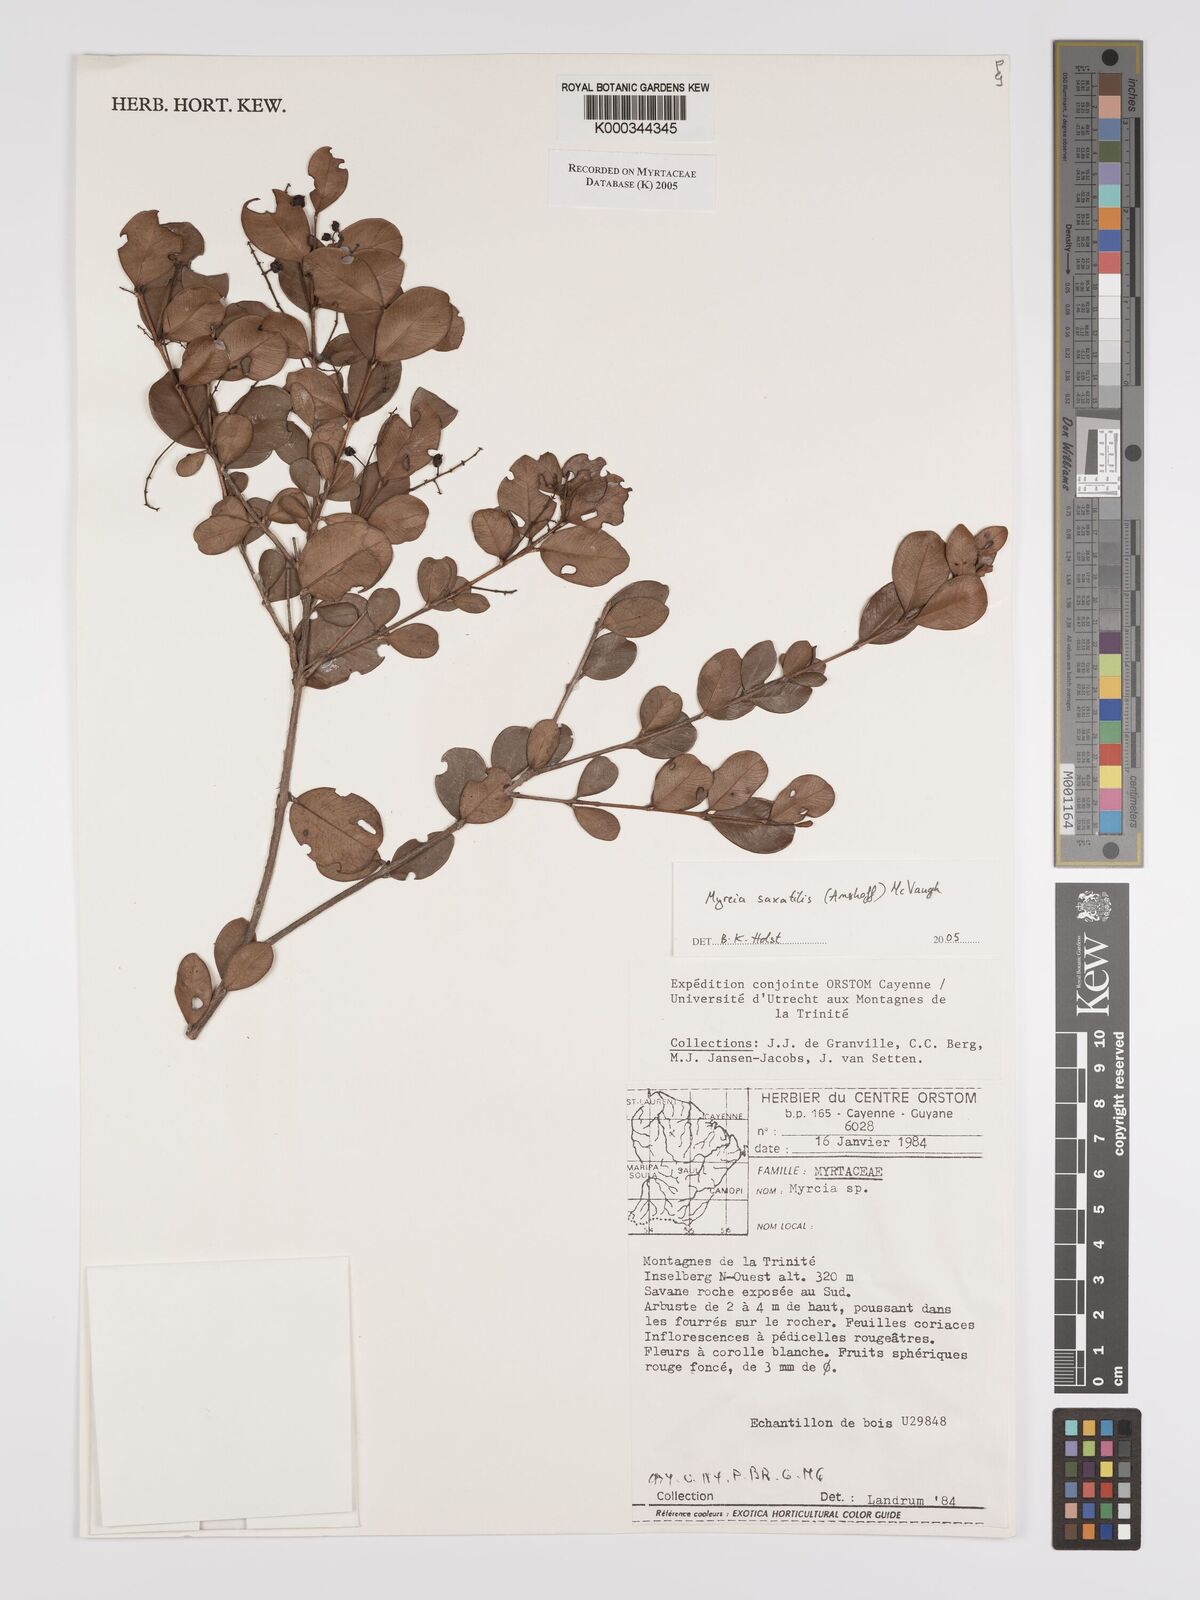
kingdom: Plantae
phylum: Tracheophyta
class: Magnoliopsida
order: Myrtales
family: Myrtaceae
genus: Myrcia
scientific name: Myrcia saxatilis
